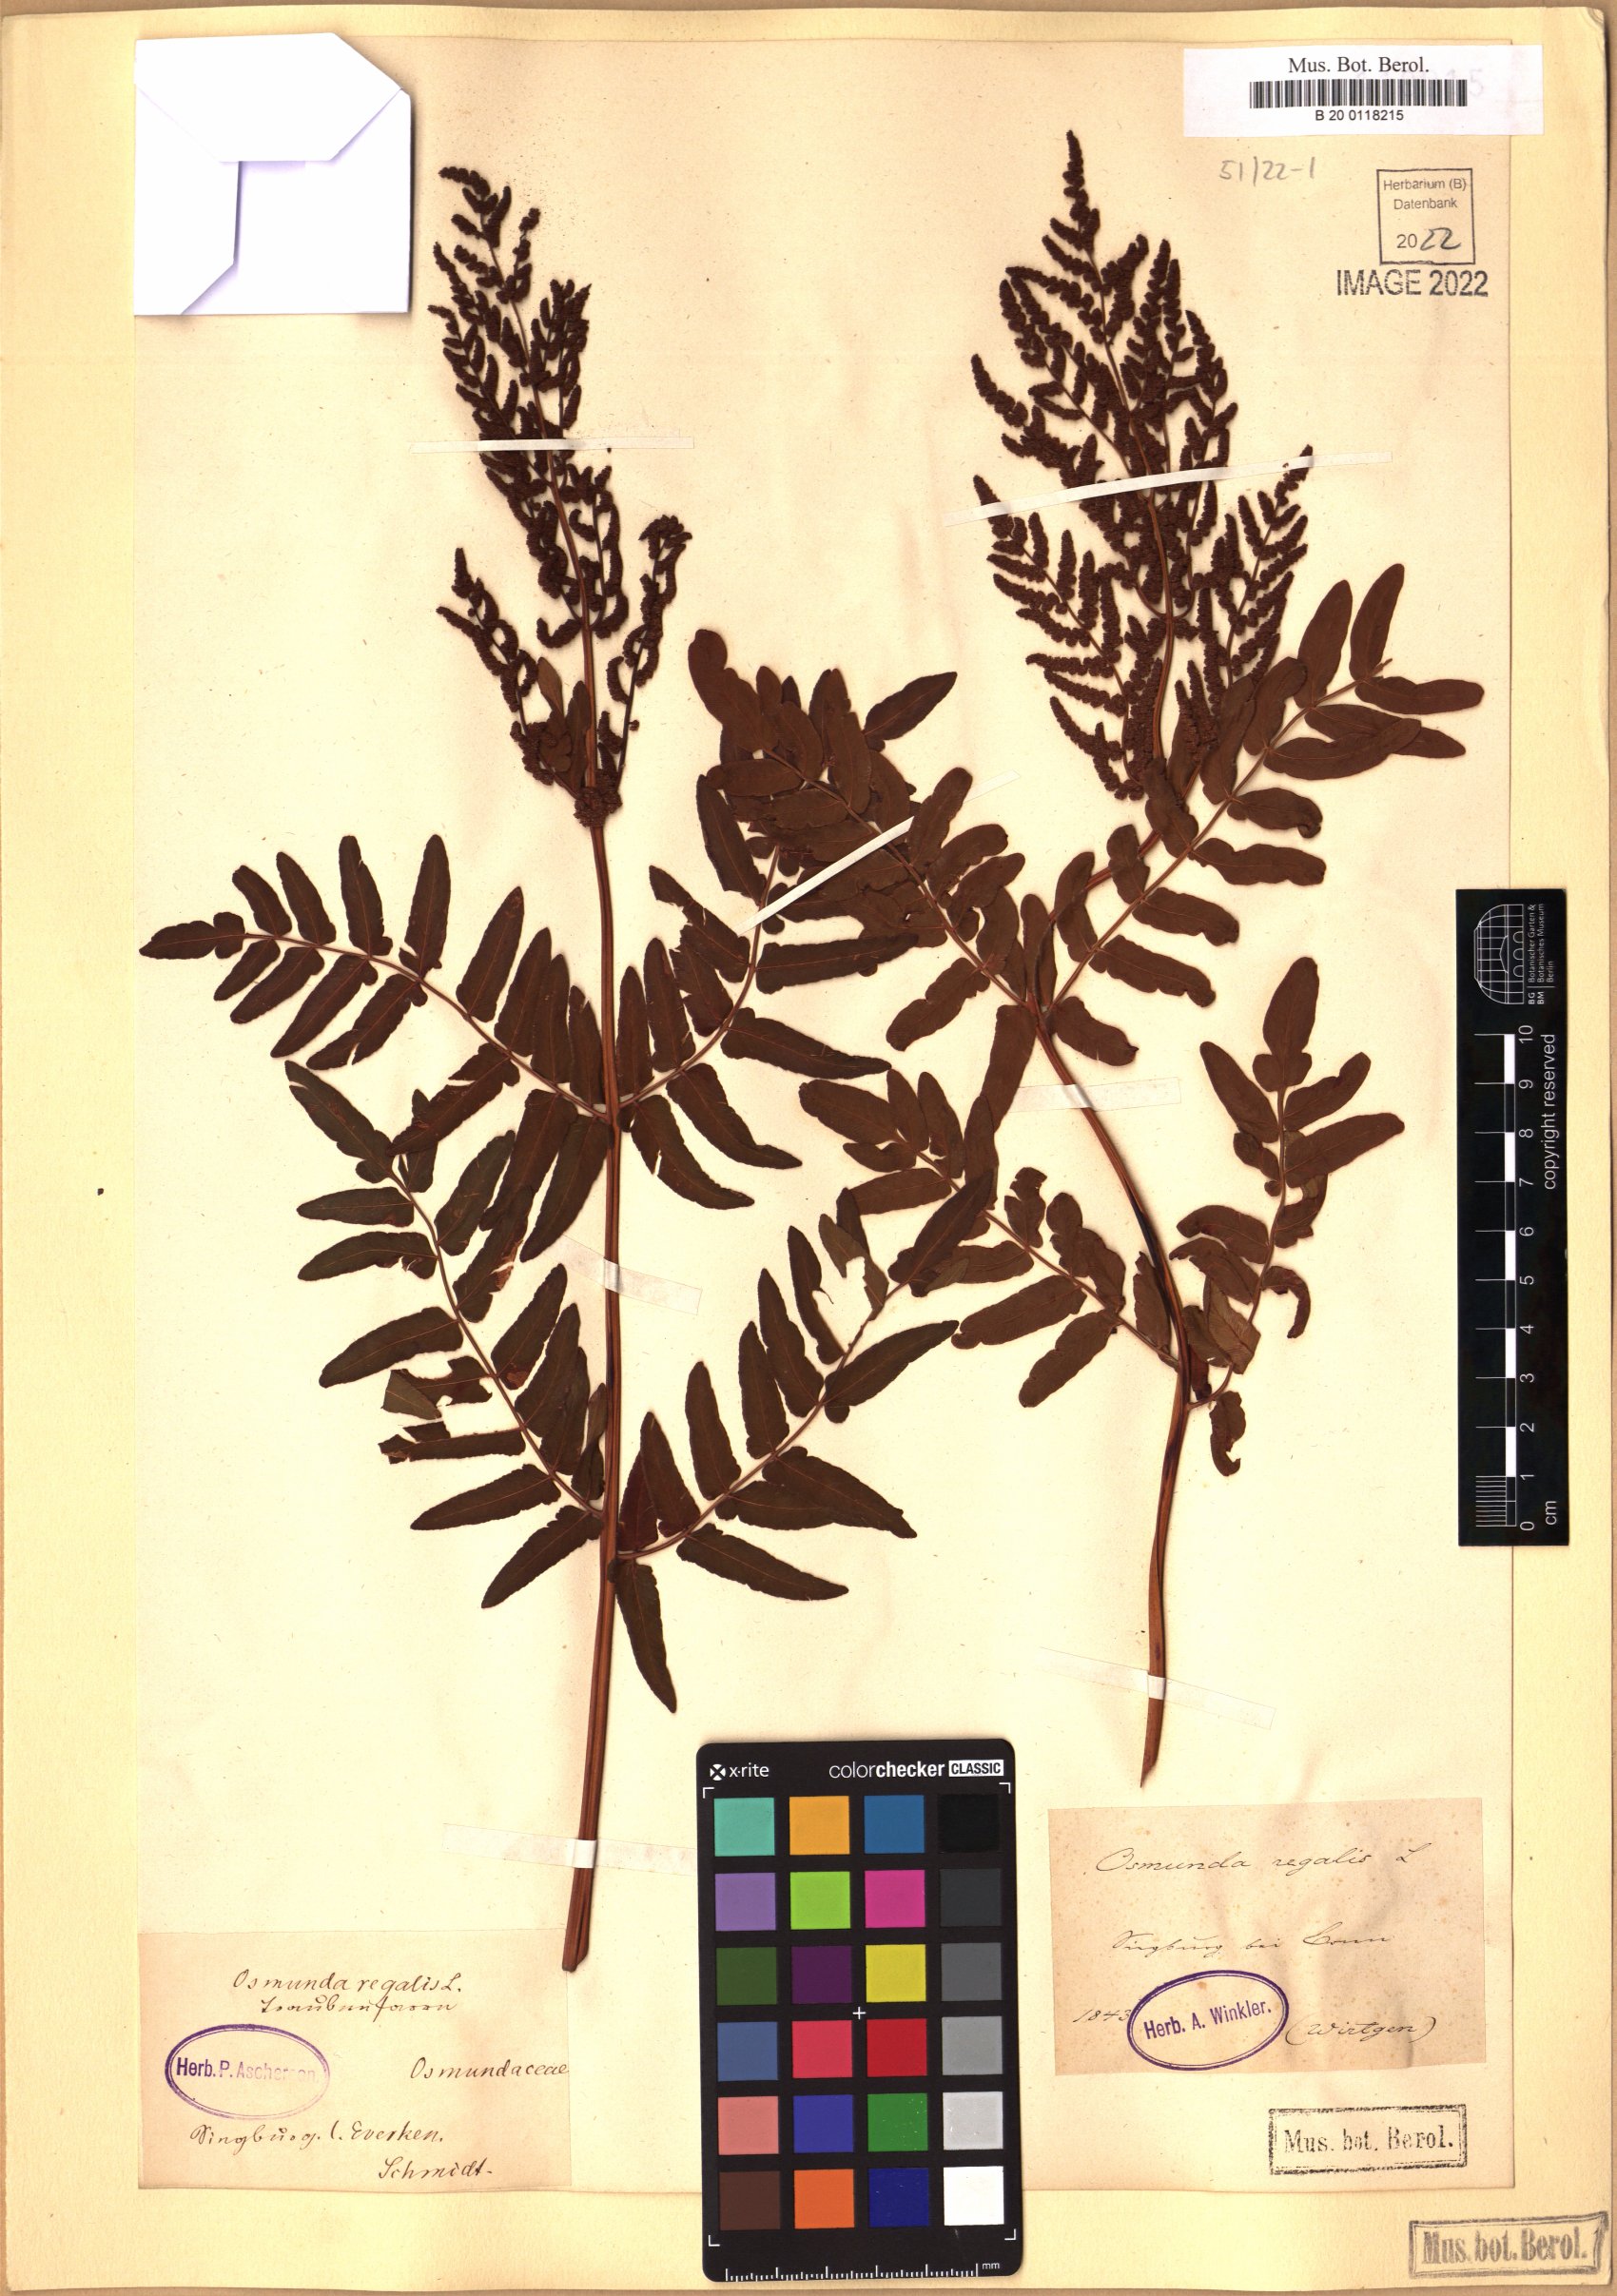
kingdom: Plantae
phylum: Tracheophyta
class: Polypodiopsida
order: Osmundales
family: Osmundaceae
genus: Osmunda
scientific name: Osmunda regalis
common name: Royal fern
